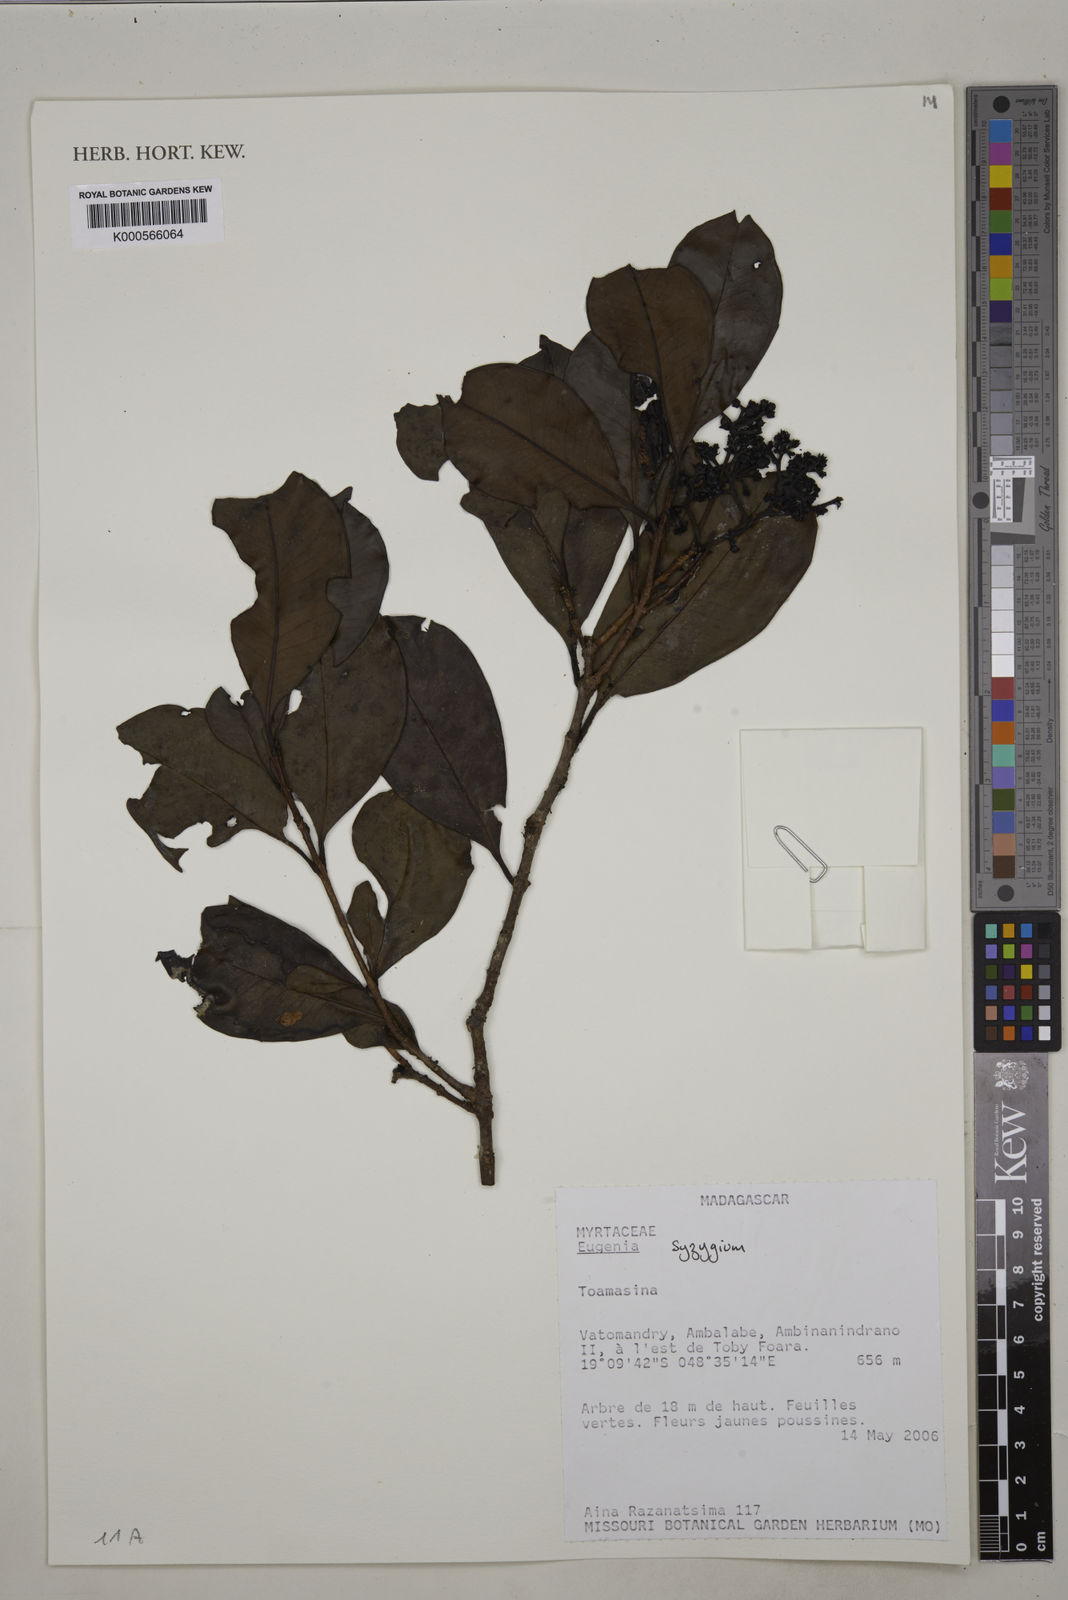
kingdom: Plantae
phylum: Tracheophyta
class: Magnoliopsida
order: Myrtales
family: Myrtaceae
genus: Syzygium
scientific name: Syzygium
